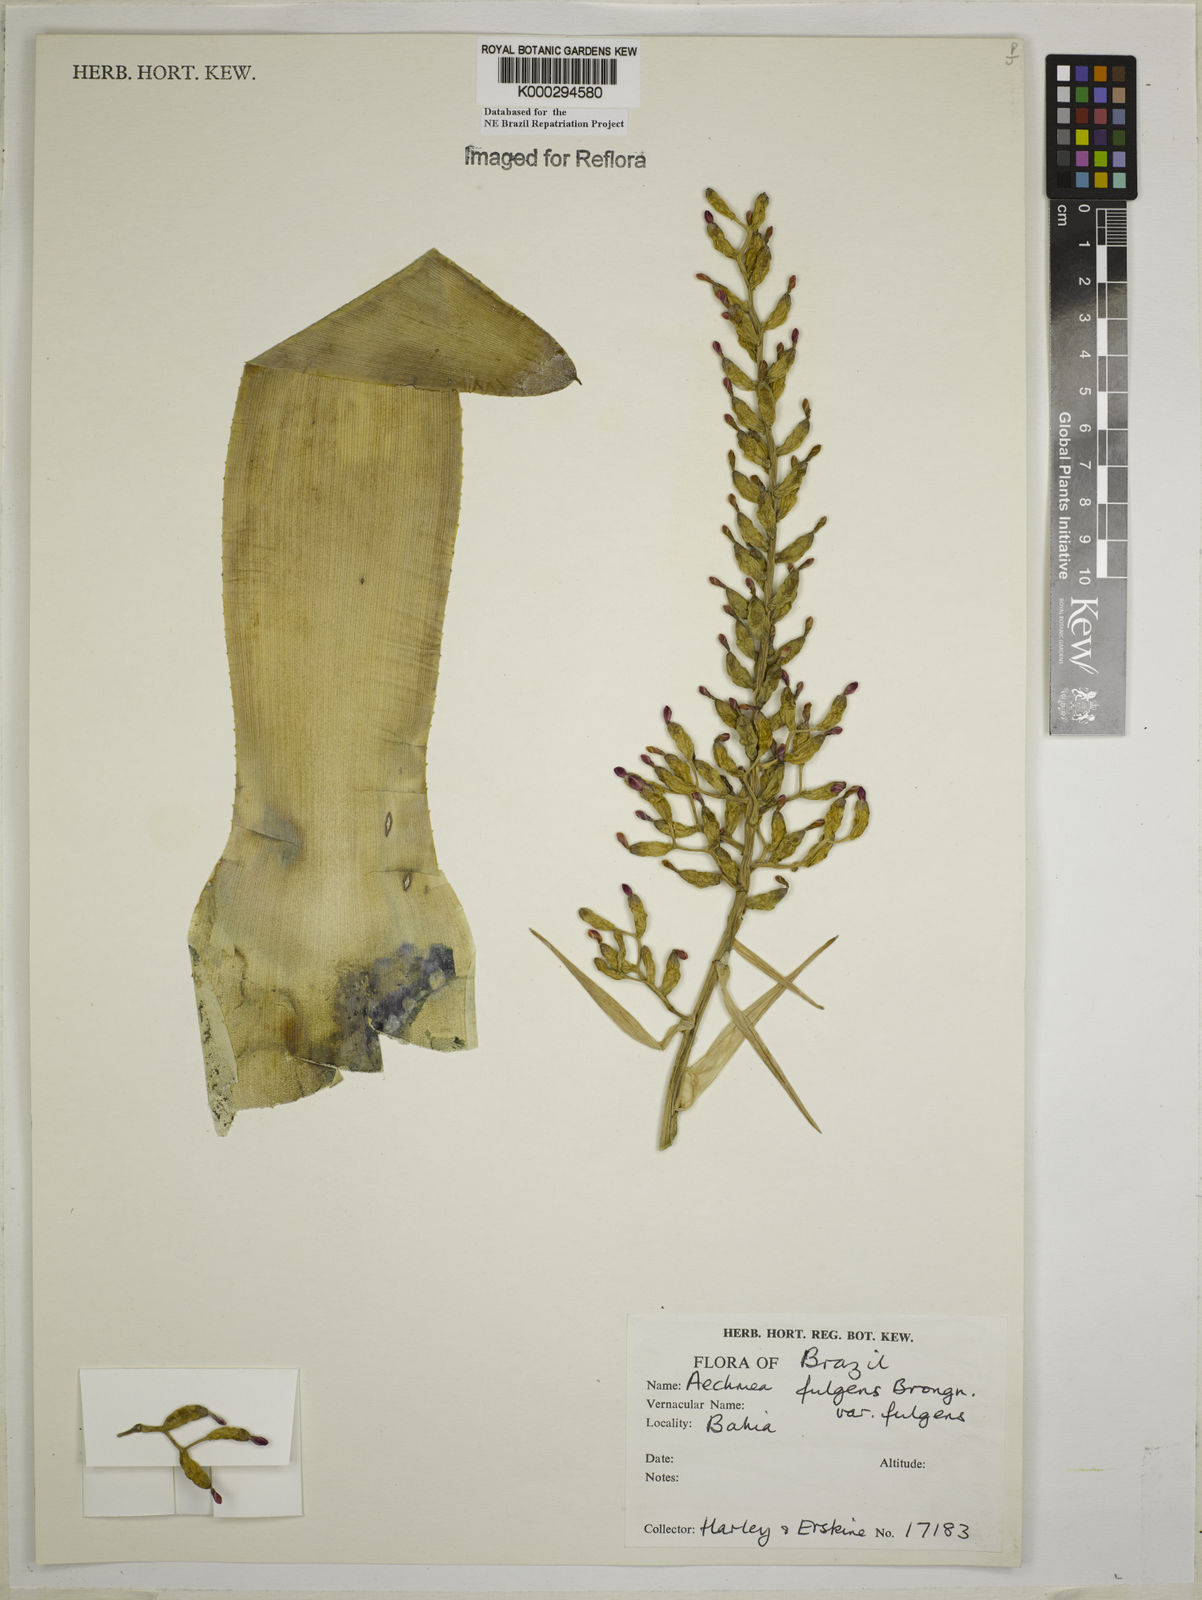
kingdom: Plantae
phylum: Tracheophyta
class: Liliopsida
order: Poales
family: Bromeliaceae
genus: Aechmea
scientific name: Aechmea fulgens
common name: Coralberry
